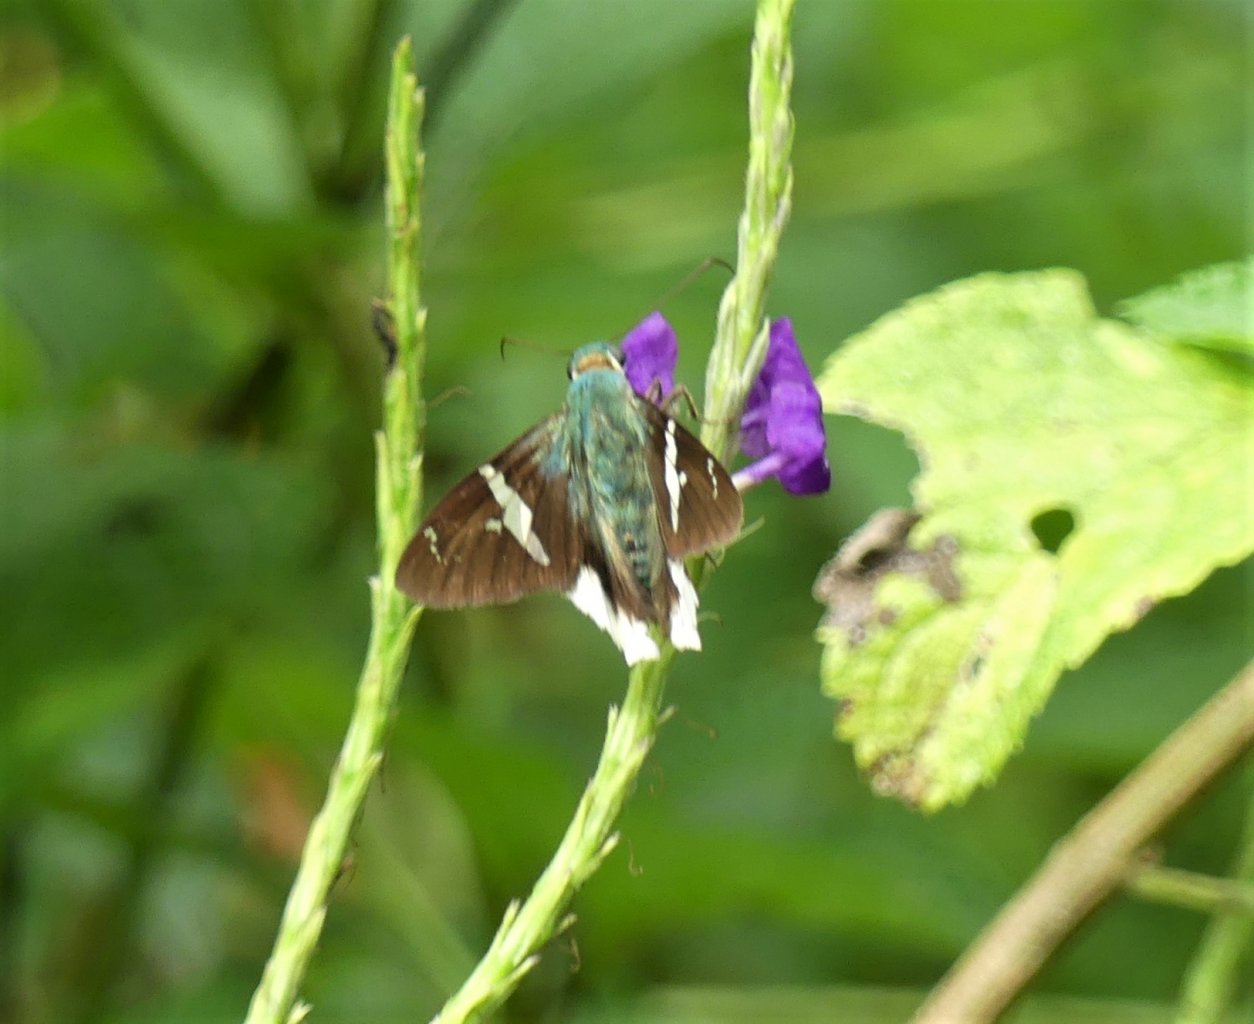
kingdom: Animalia
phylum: Arthropoda
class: Insecta
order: Lepidoptera
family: Hesperiidae
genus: Urbanus
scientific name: Urbanus chalco
